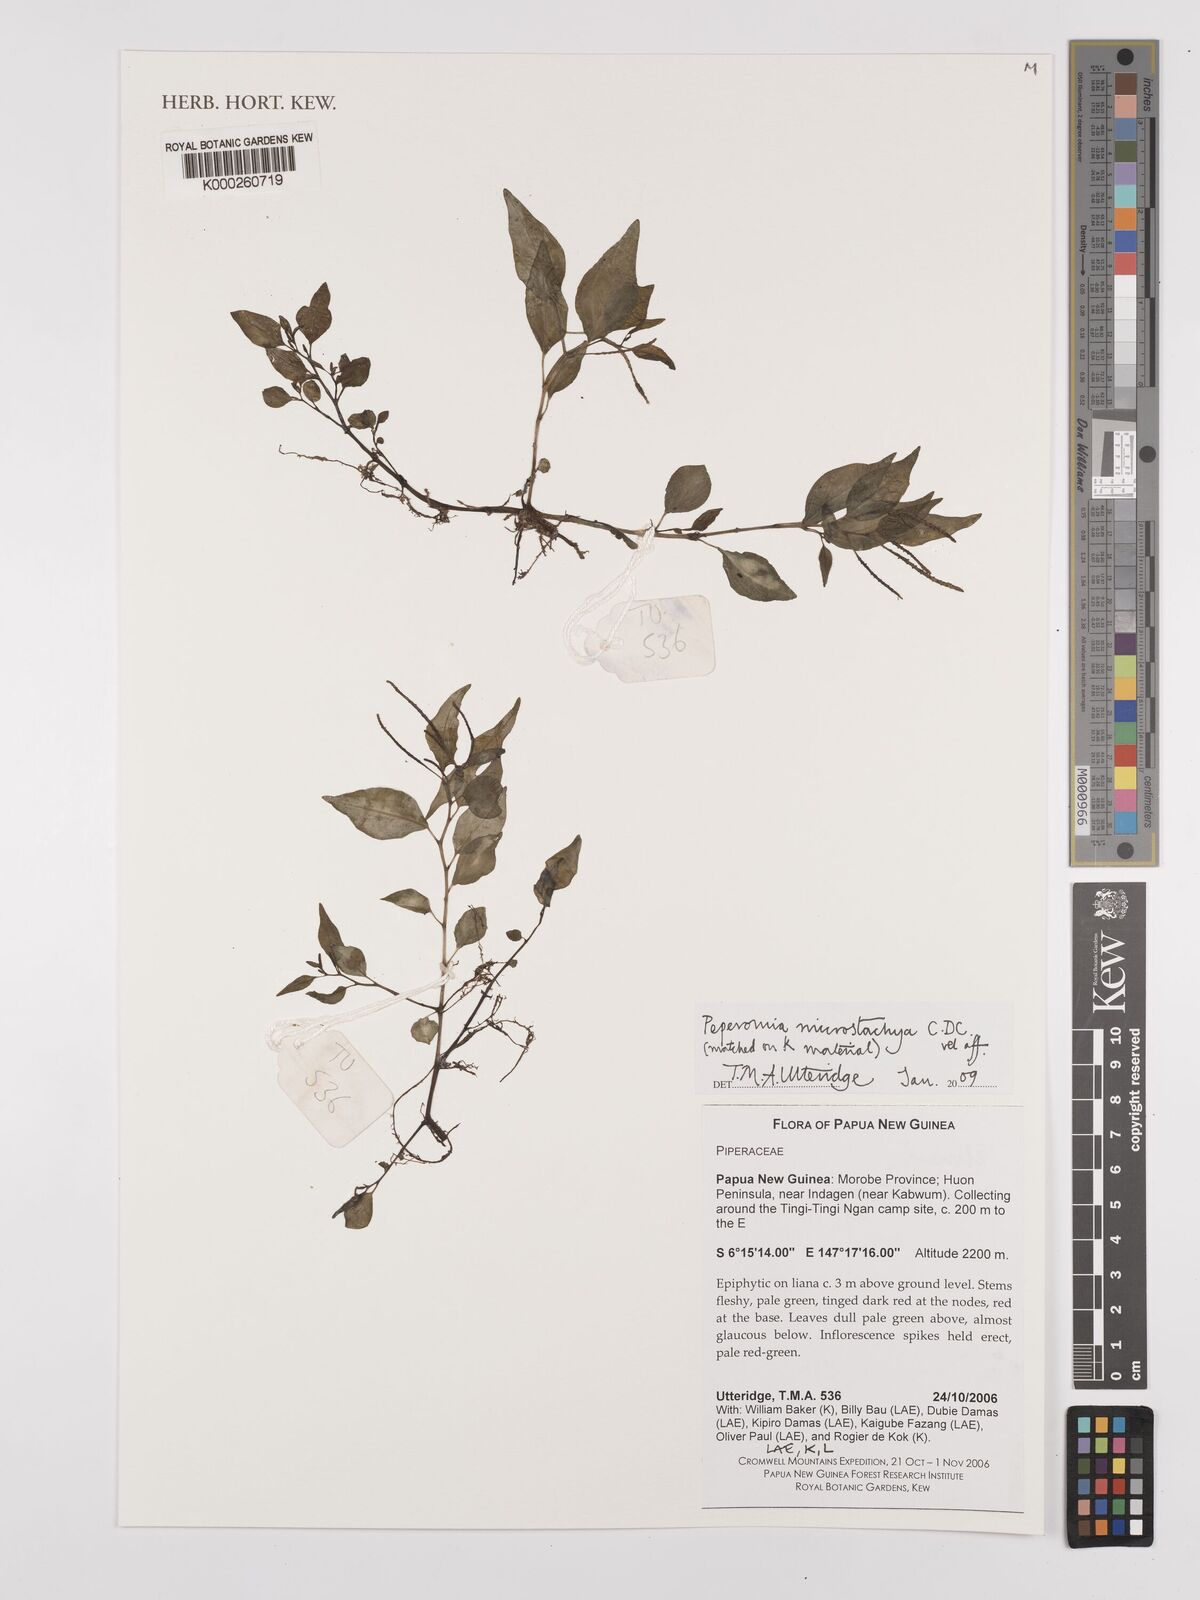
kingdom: Plantae
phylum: Tracheophyta
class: Magnoliopsida
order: Piperales
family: Piperaceae
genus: Peperomia
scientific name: Peperomia microstachya
